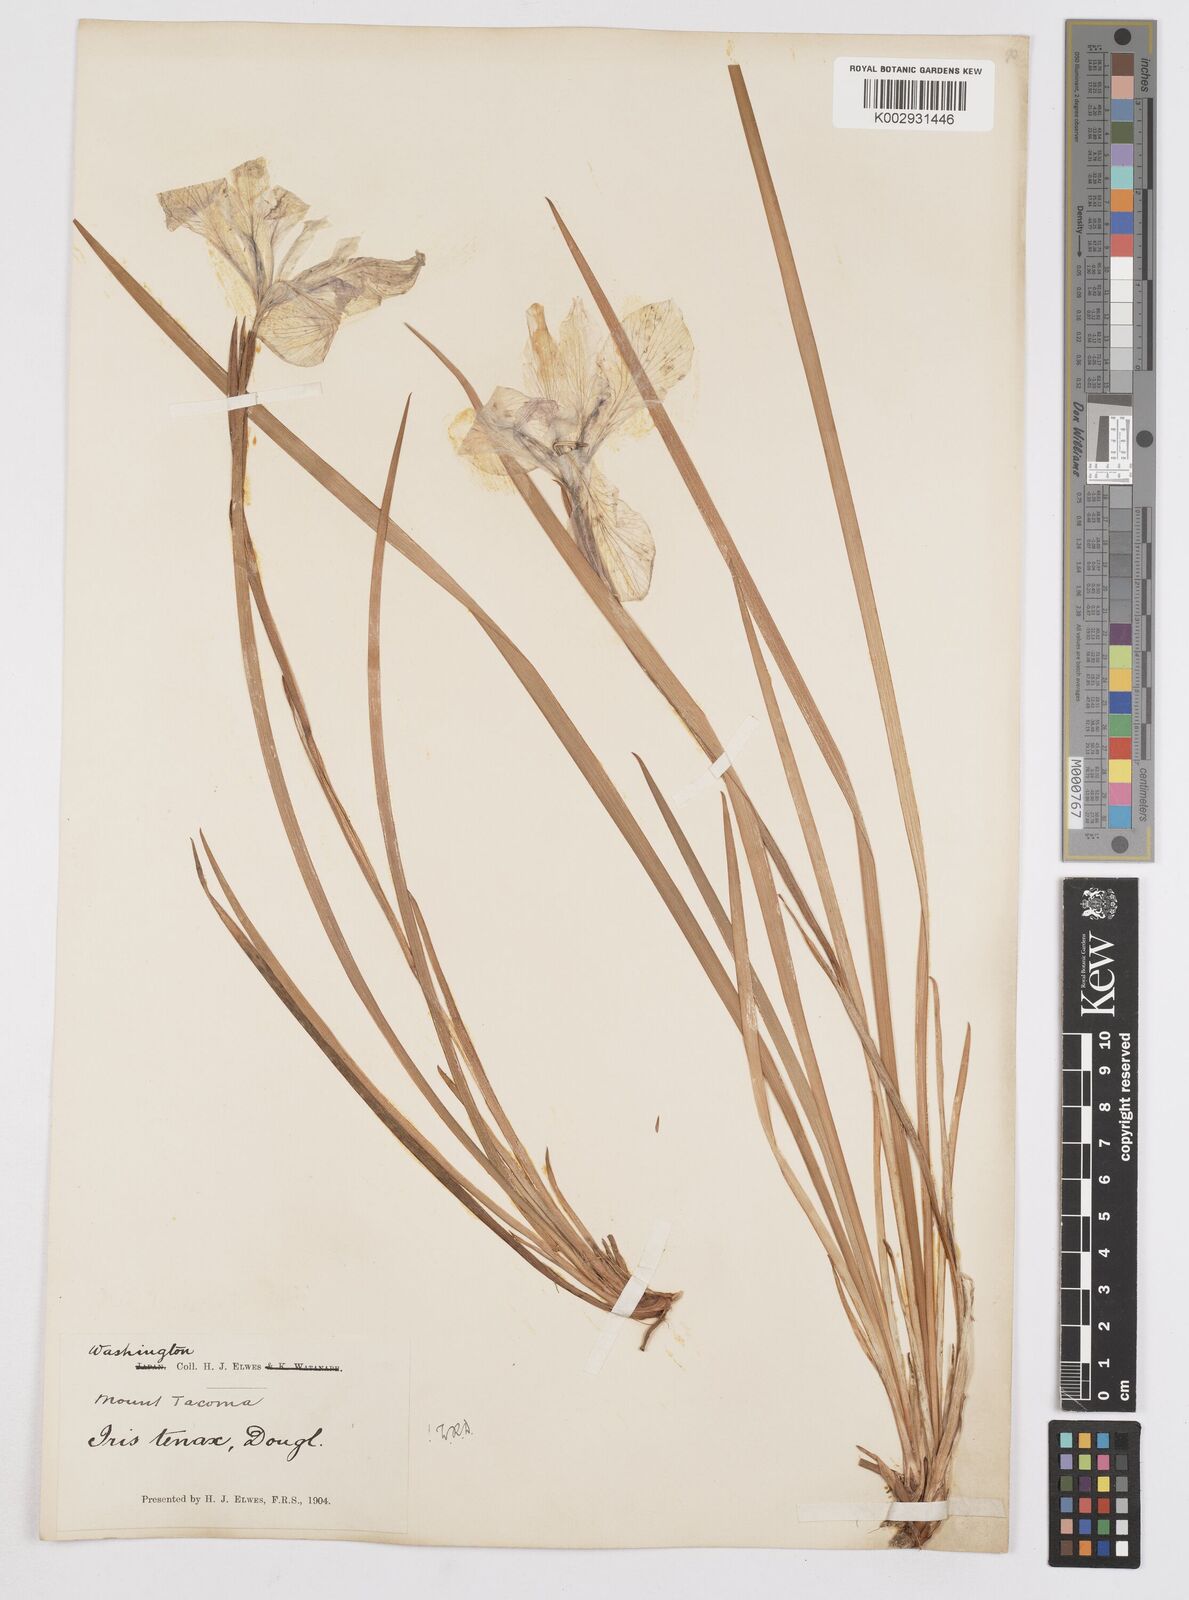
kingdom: Plantae
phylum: Tracheophyta
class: Liliopsida
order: Asparagales
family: Iridaceae
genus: Iris
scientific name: Iris tenax
